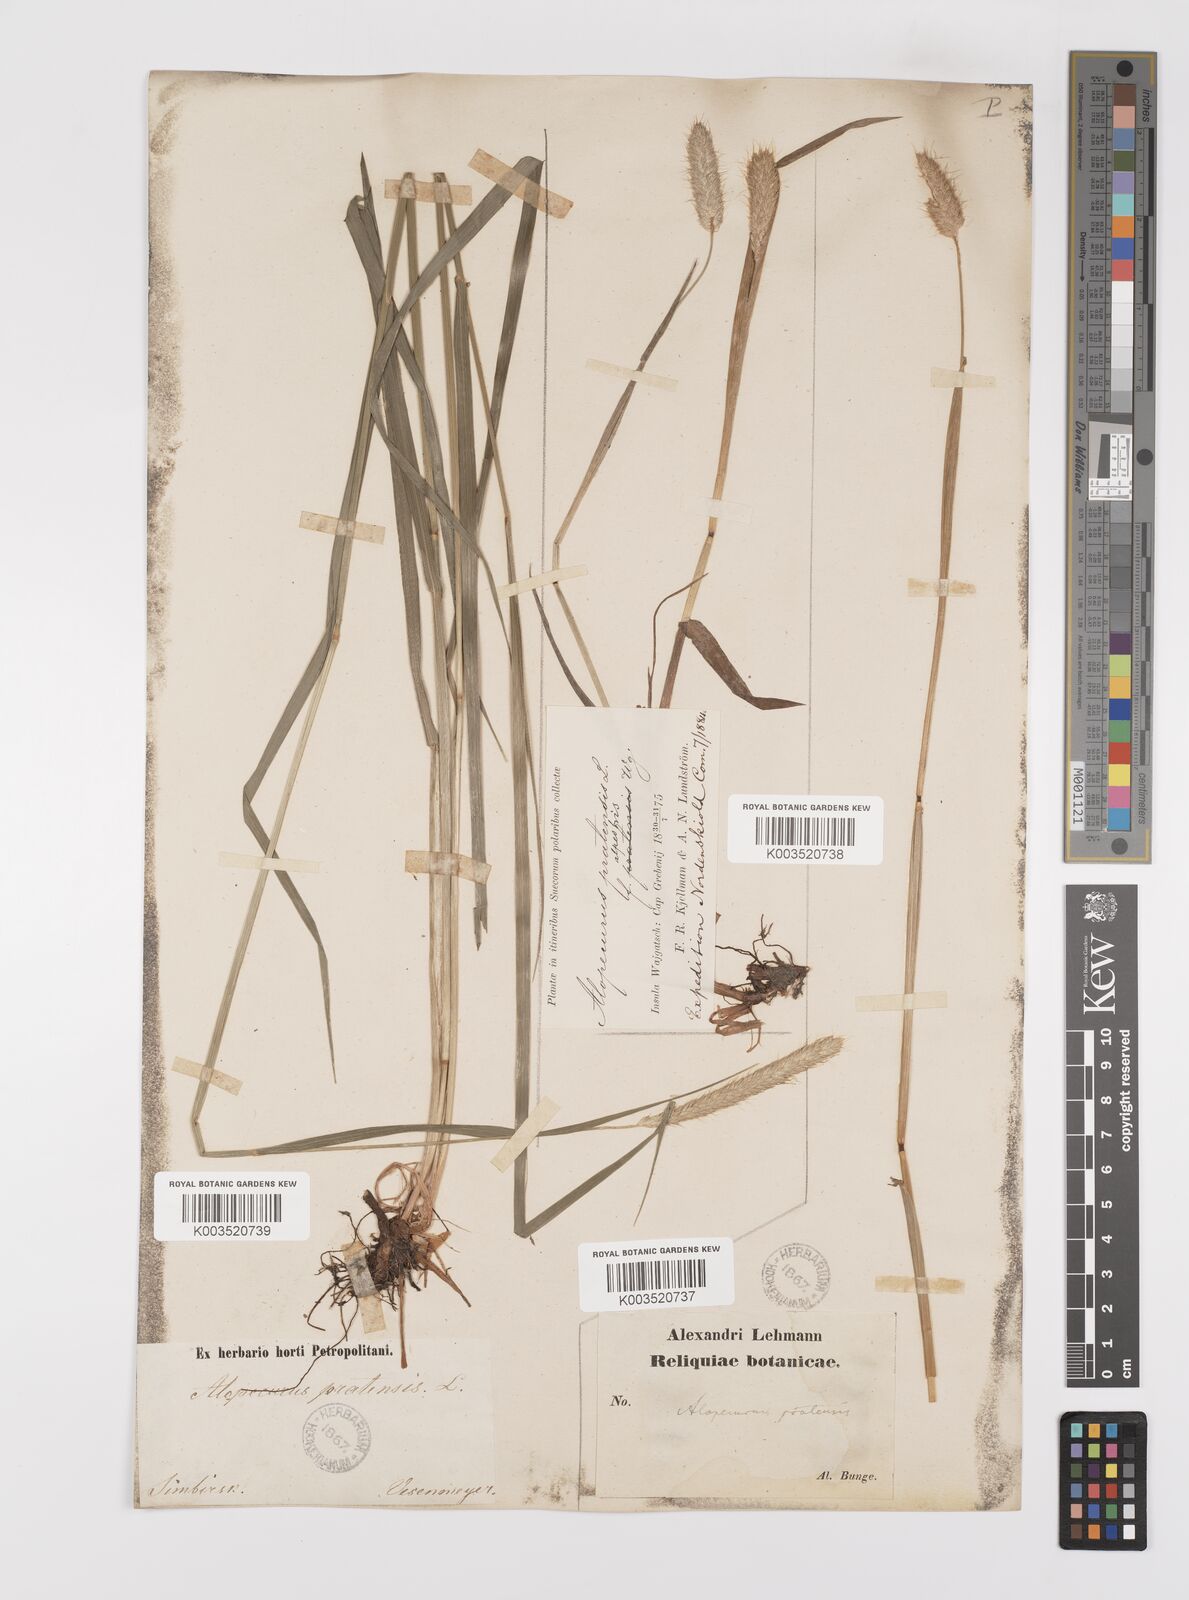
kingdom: Plantae
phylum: Tracheophyta
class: Liliopsida
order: Poales
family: Poaceae
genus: Alopecurus
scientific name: Alopecurus pratensis
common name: Meadow foxtail
